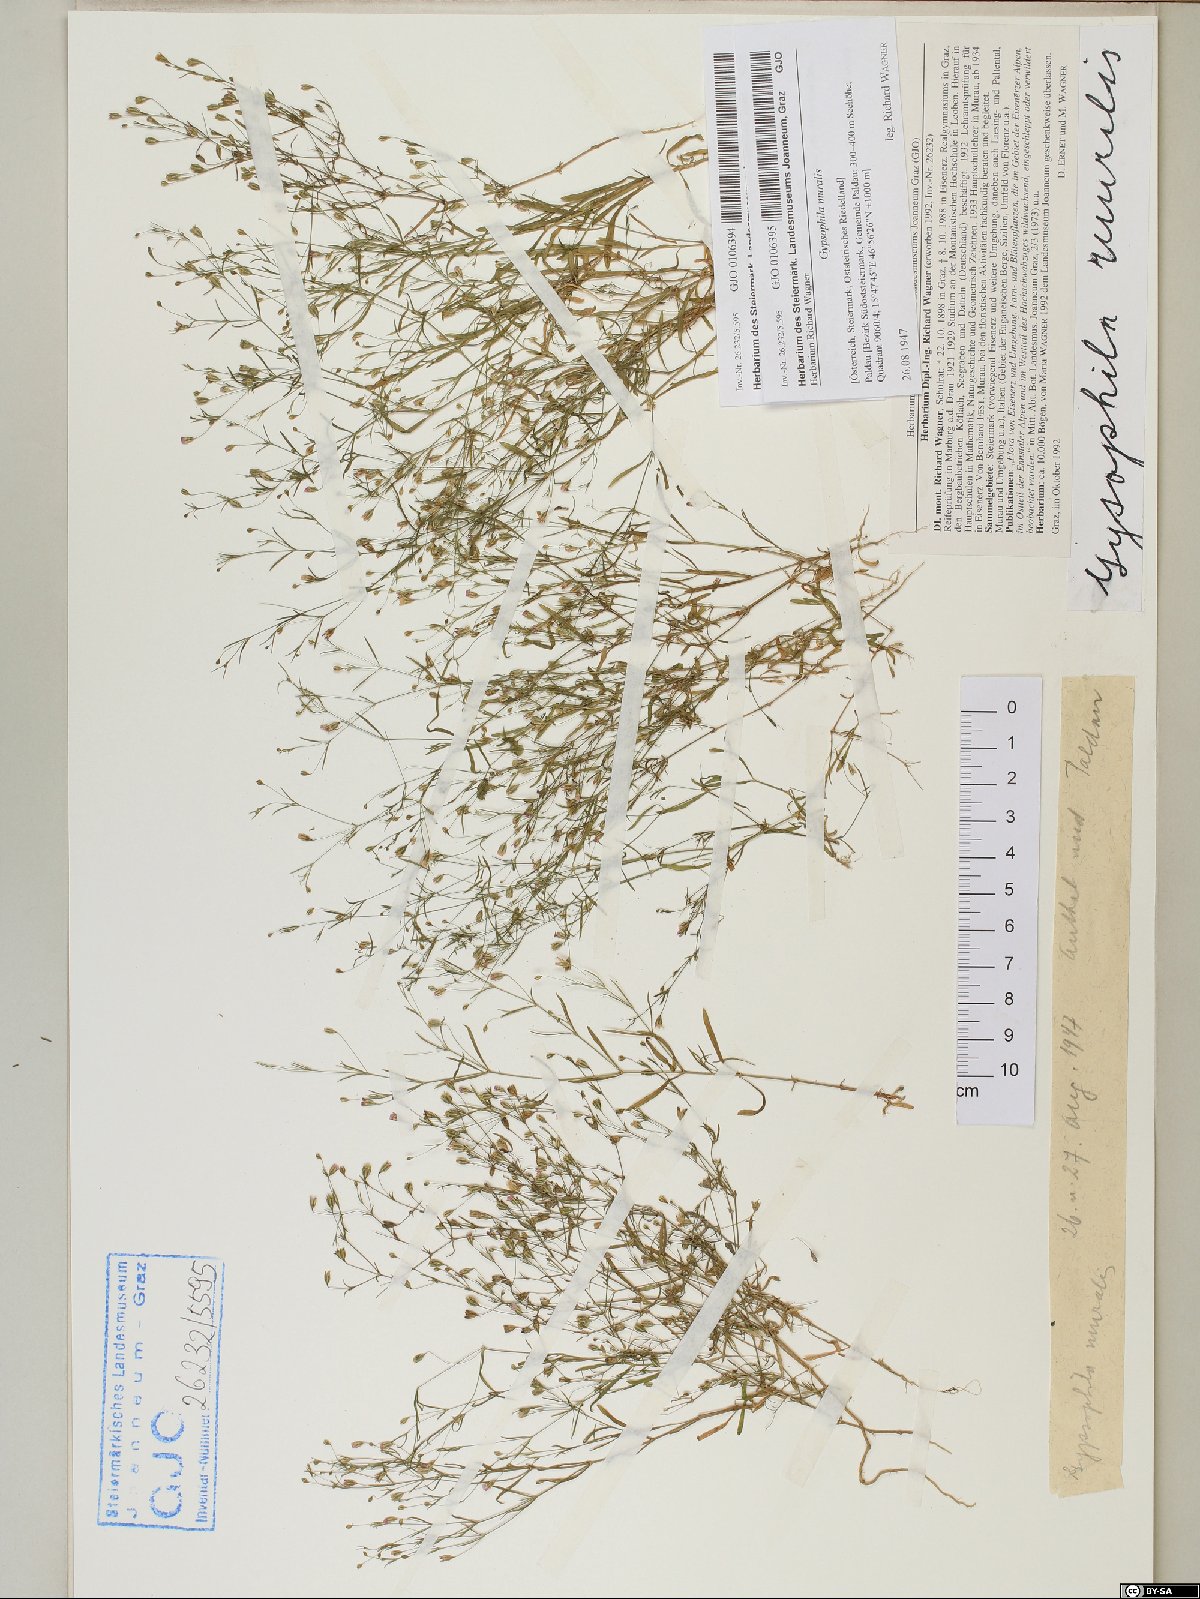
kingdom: Plantae
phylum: Tracheophyta
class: Magnoliopsida
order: Caryophyllales
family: Caryophyllaceae
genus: Psammophiliella
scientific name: Psammophiliella muralis
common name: Cushion baby's-breath
